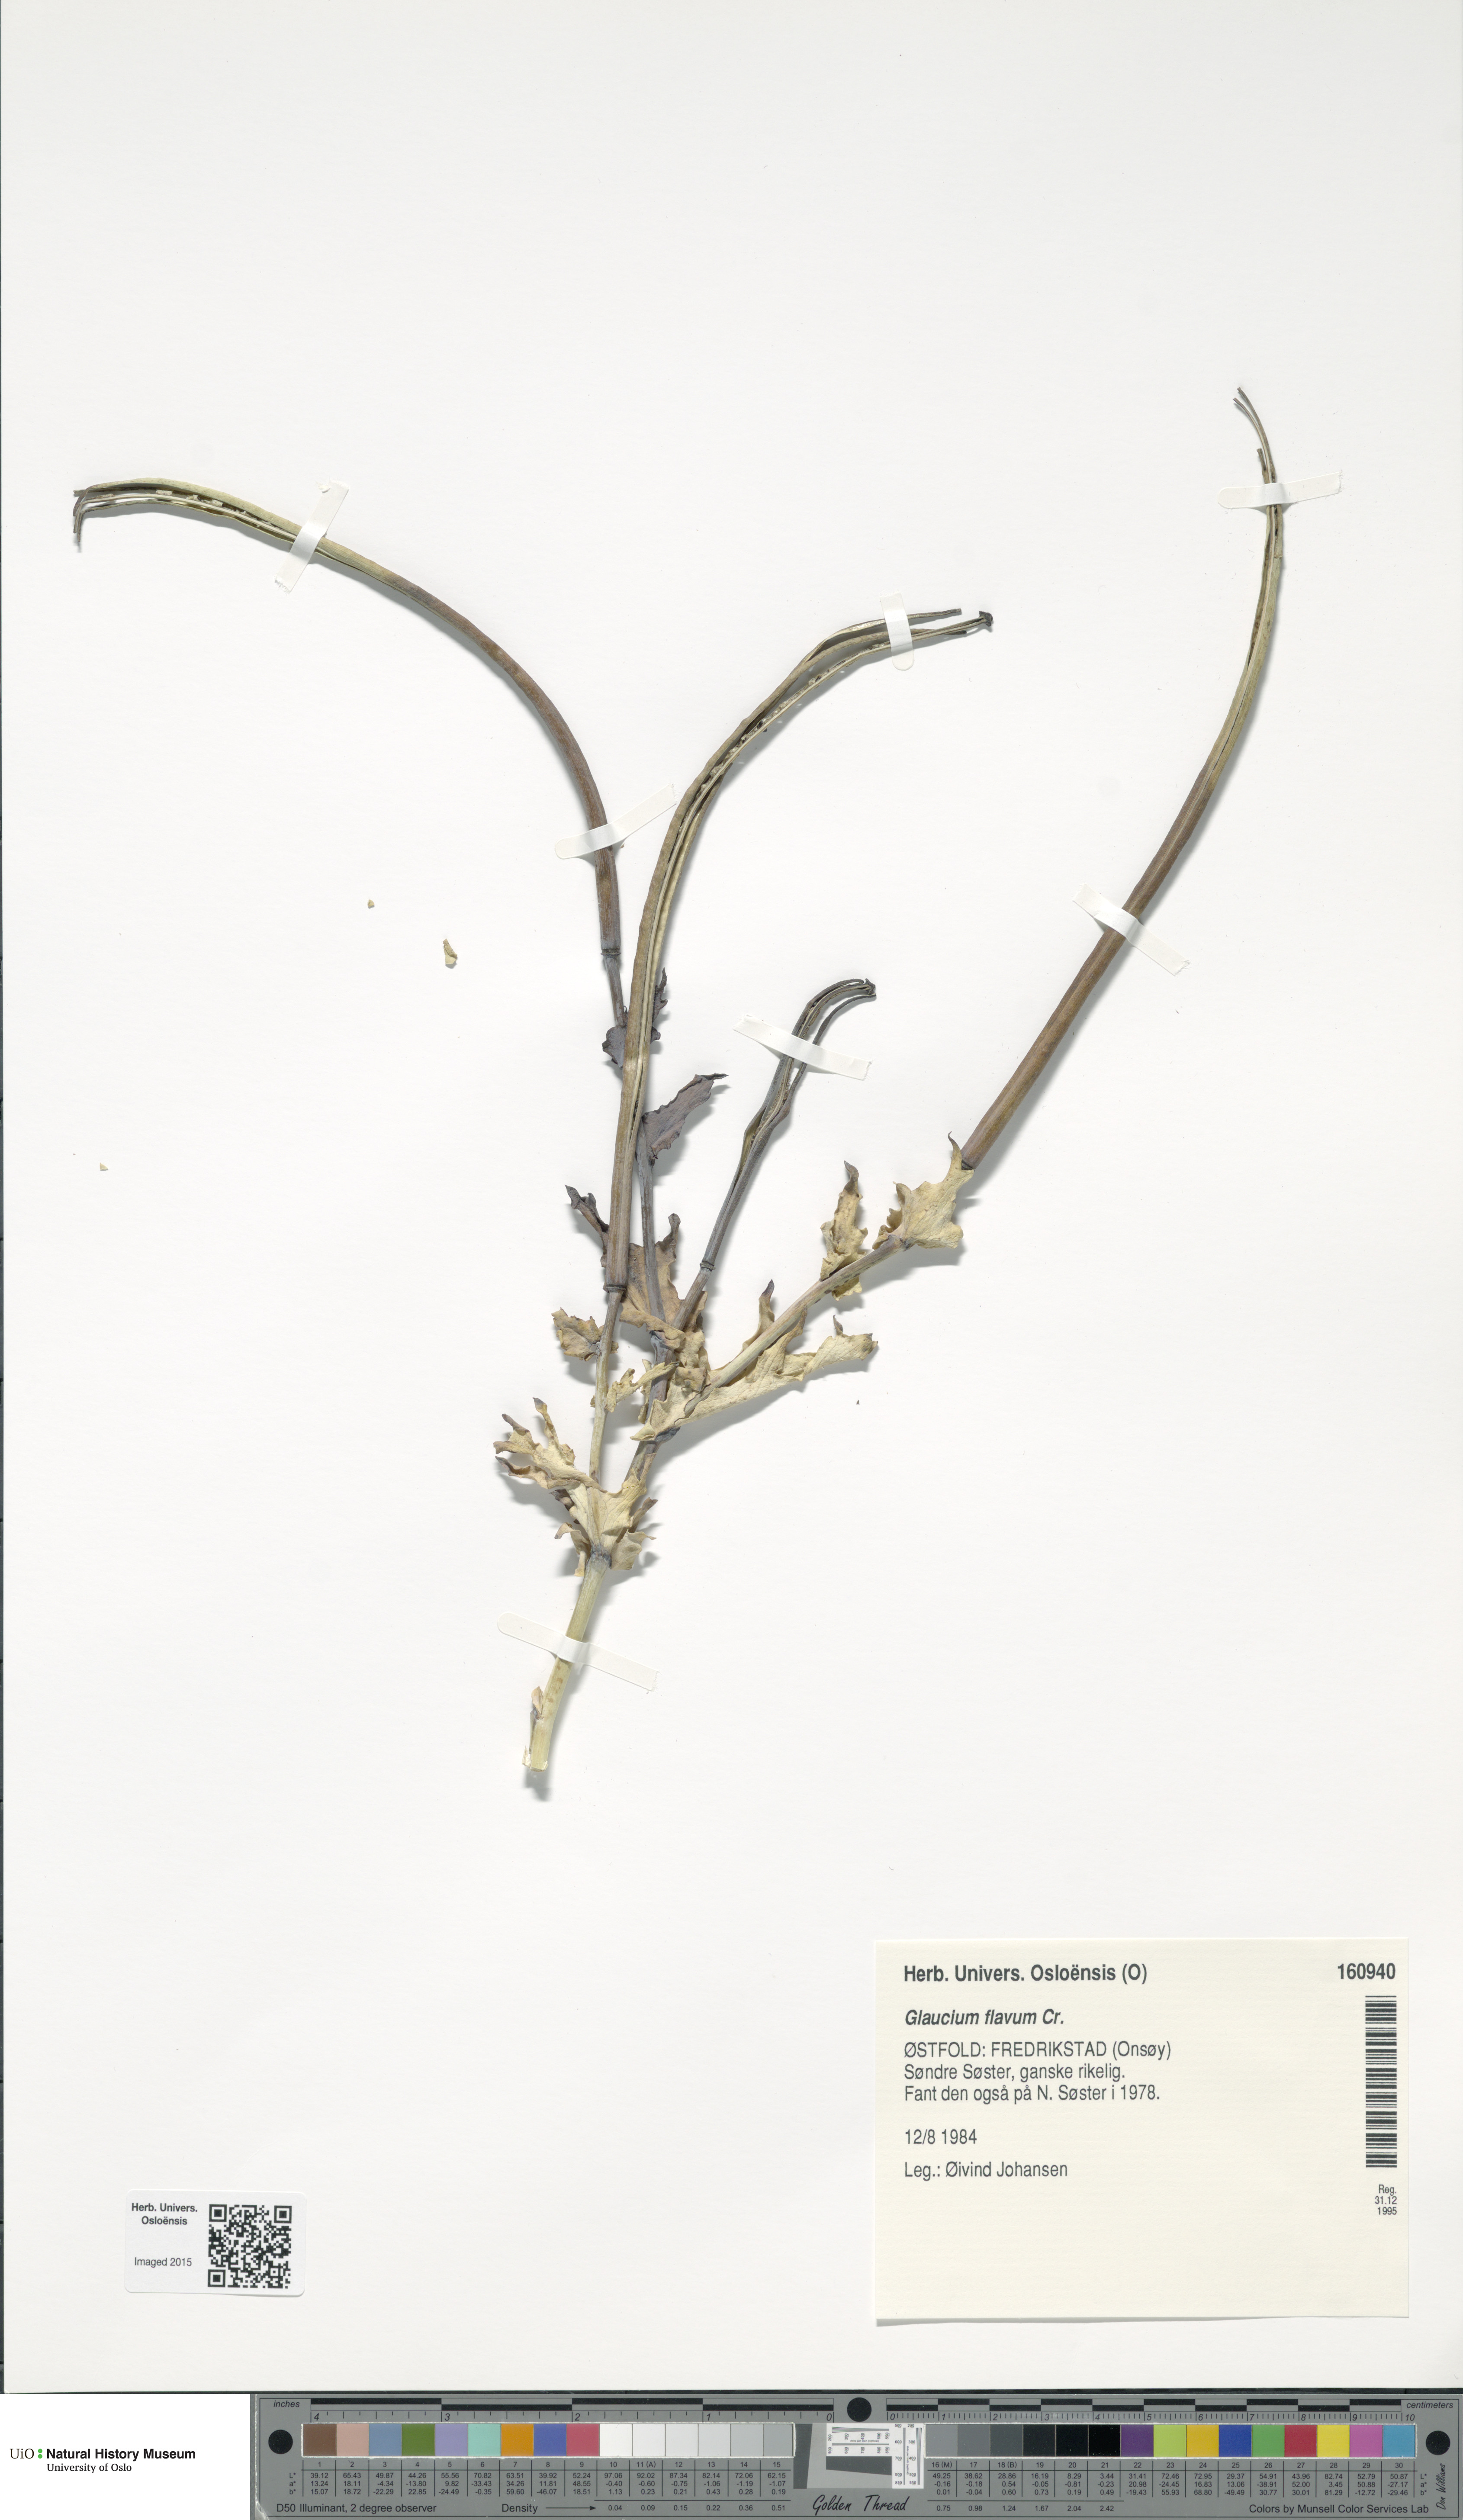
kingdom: Plantae
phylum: Tracheophyta
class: Magnoliopsida
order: Ranunculales
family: Papaveraceae
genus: Glaucium
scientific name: Glaucium flavum
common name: Yellow horned-poppy
